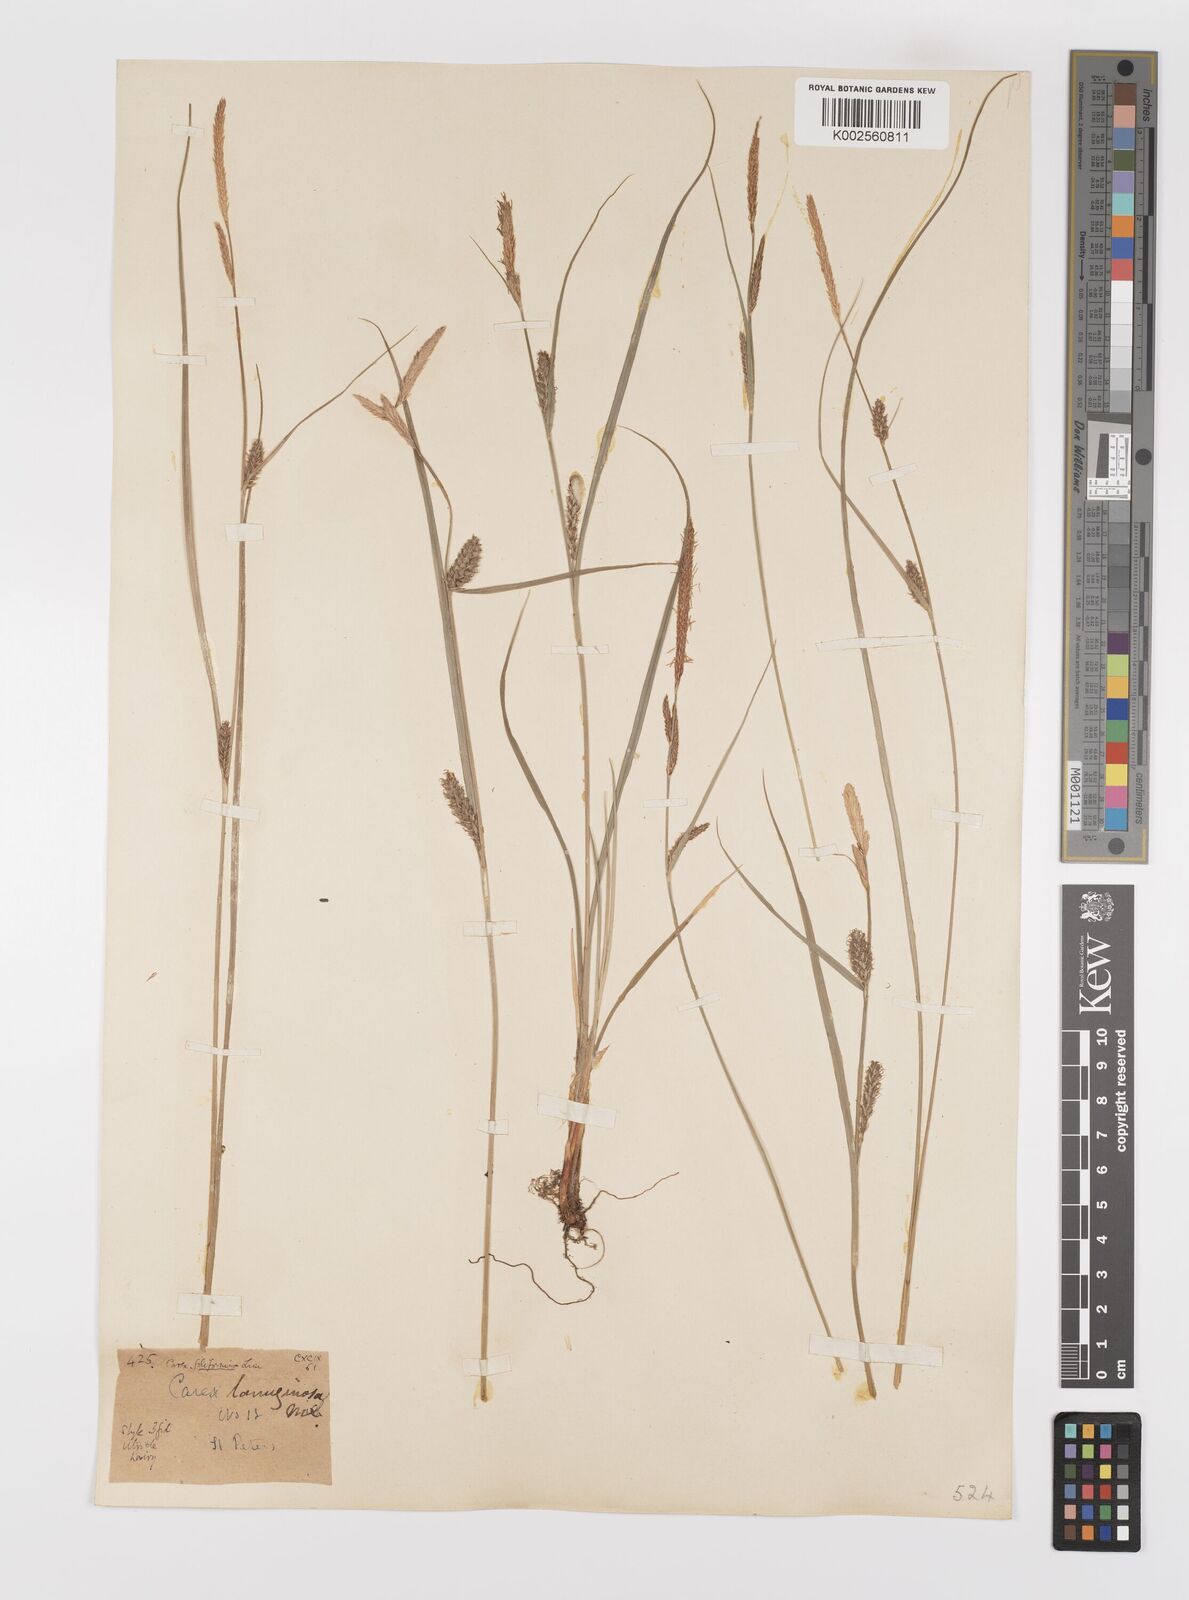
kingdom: Plantae
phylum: Tracheophyta
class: Liliopsida
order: Poales
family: Cyperaceae
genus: Carex
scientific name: Carex lasiocarpa
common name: Slender sedge
